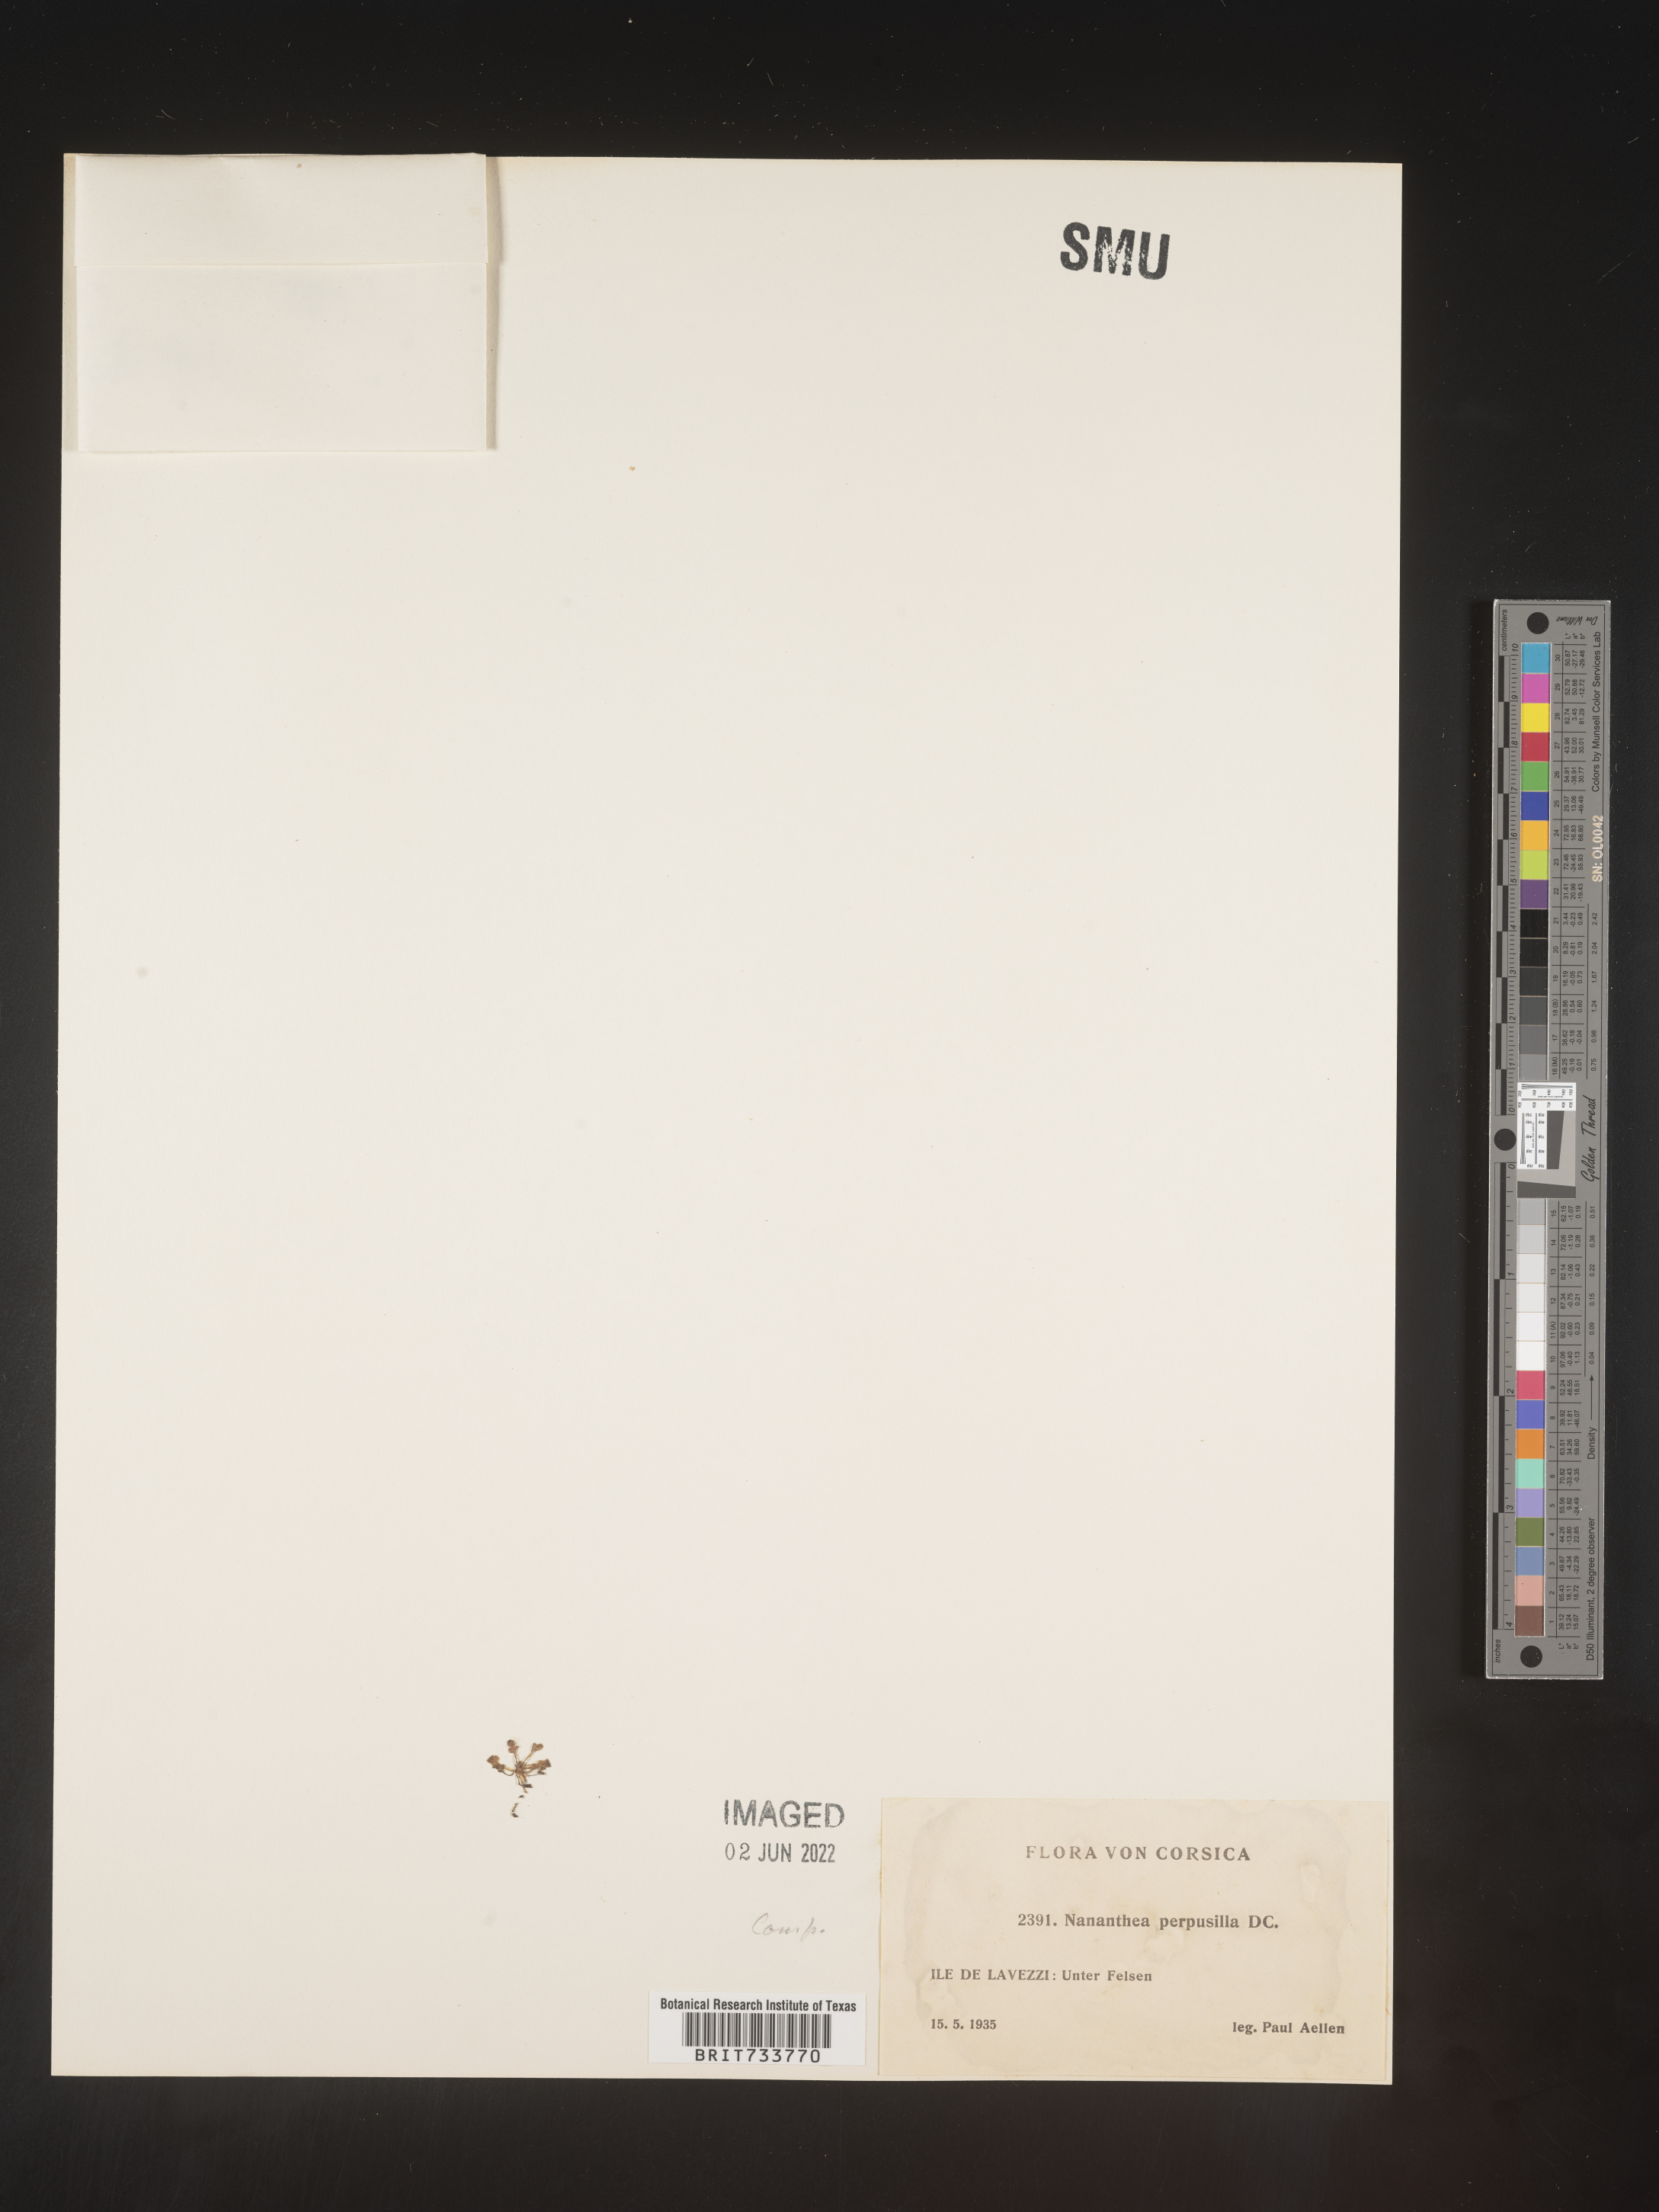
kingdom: Plantae
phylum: Tracheophyta
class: Magnoliopsida
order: Asterales
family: Asteraceae
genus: Nananthea
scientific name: Nananthea
